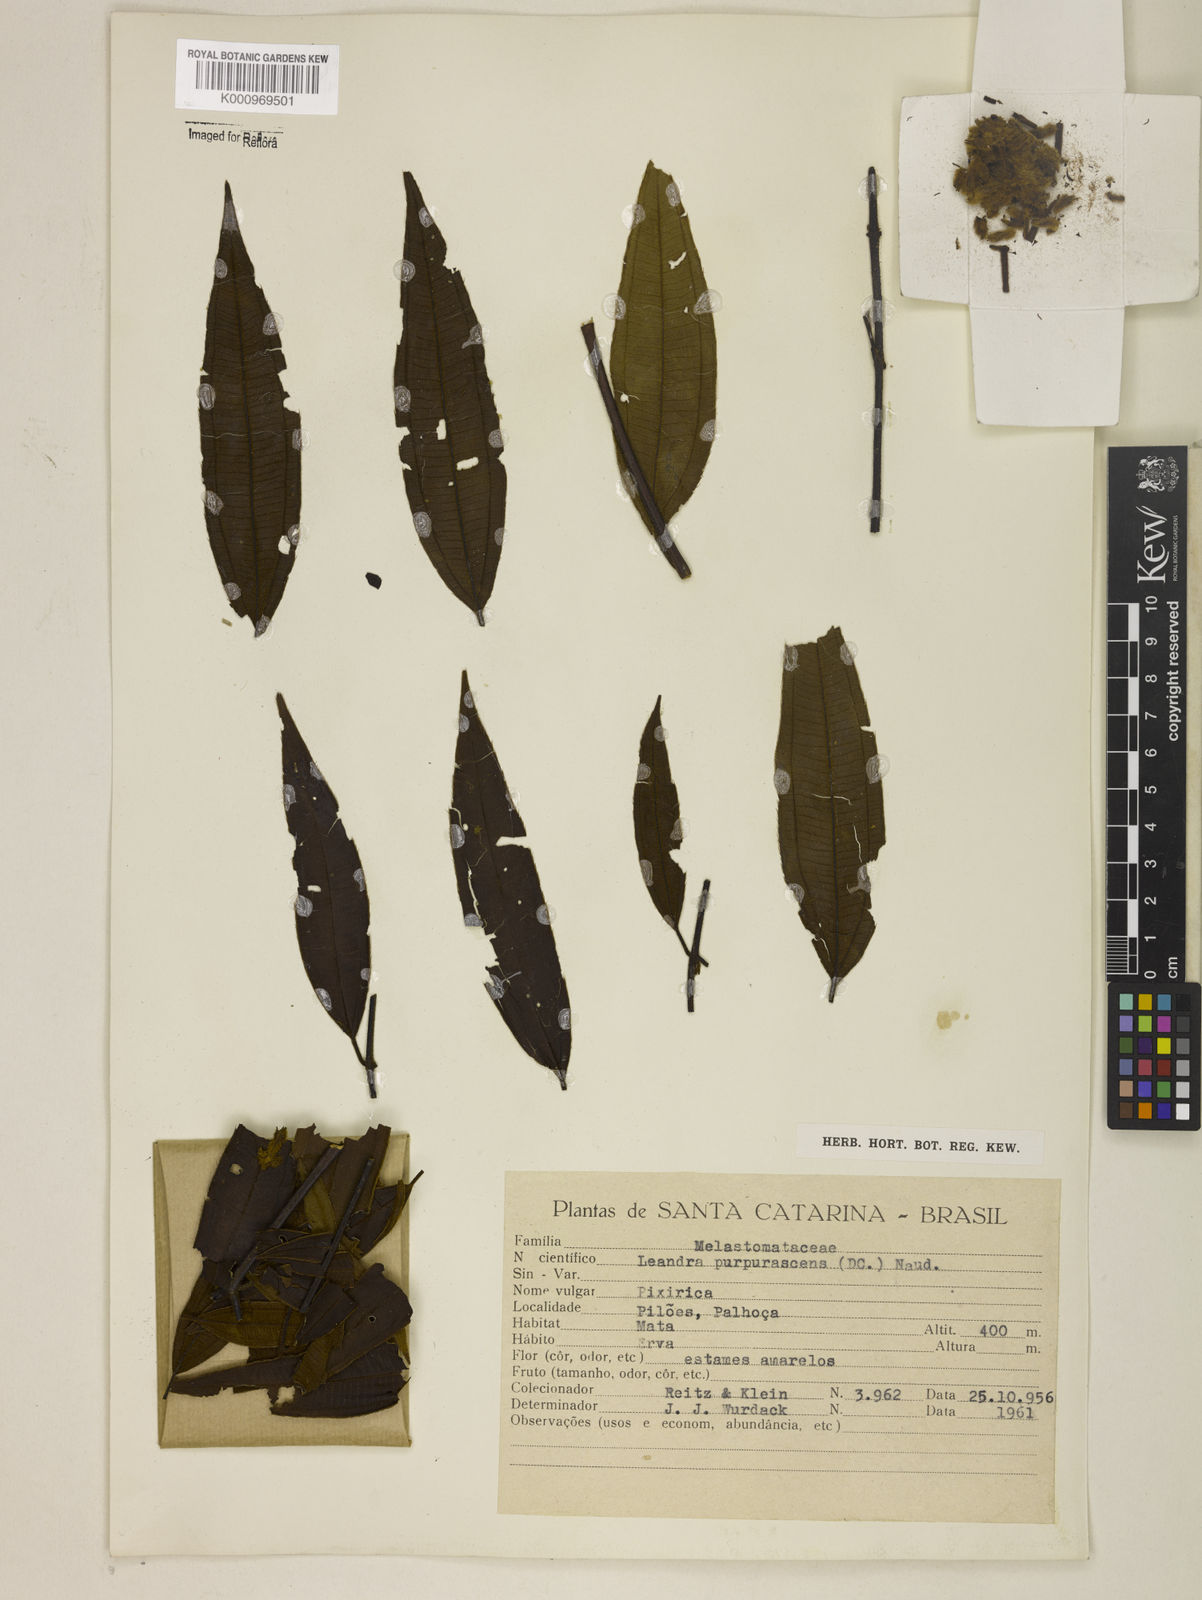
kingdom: Plantae
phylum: Tracheophyta
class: Magnoliopsida
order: Myrtales
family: Melastomataceae
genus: Miconia
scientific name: Miconia microstachya
